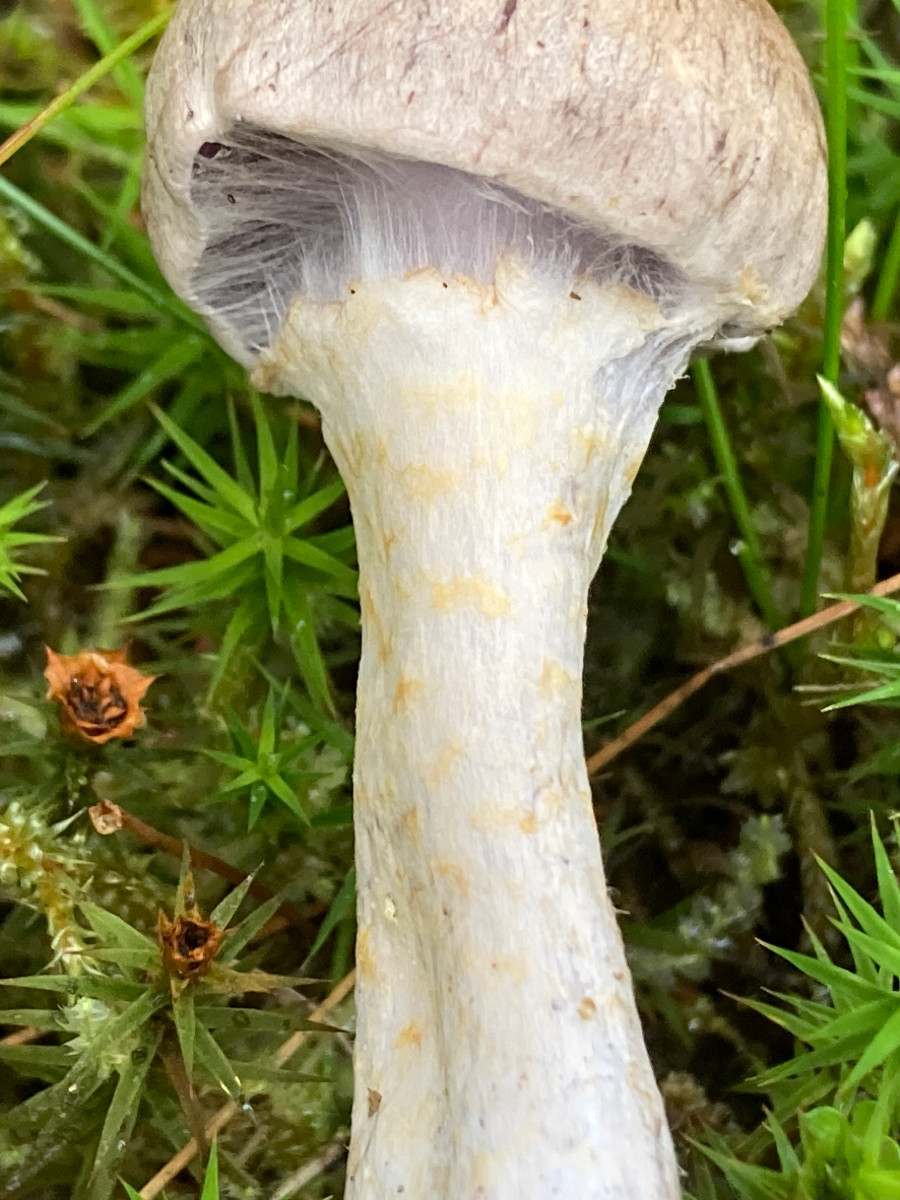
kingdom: Fungi
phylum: Basidiomycota
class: Agaricomycetes
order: Agaricales
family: Cortinariaceae
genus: Cortinarius
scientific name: Cortinarius
